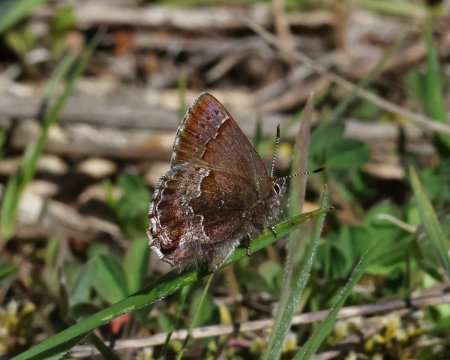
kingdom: Animalia
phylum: Arthropoda
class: Insecta
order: Lepidoptera
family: Lycaenidae
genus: Callophrys
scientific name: Callophrys mossii
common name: Moss' Elfin
